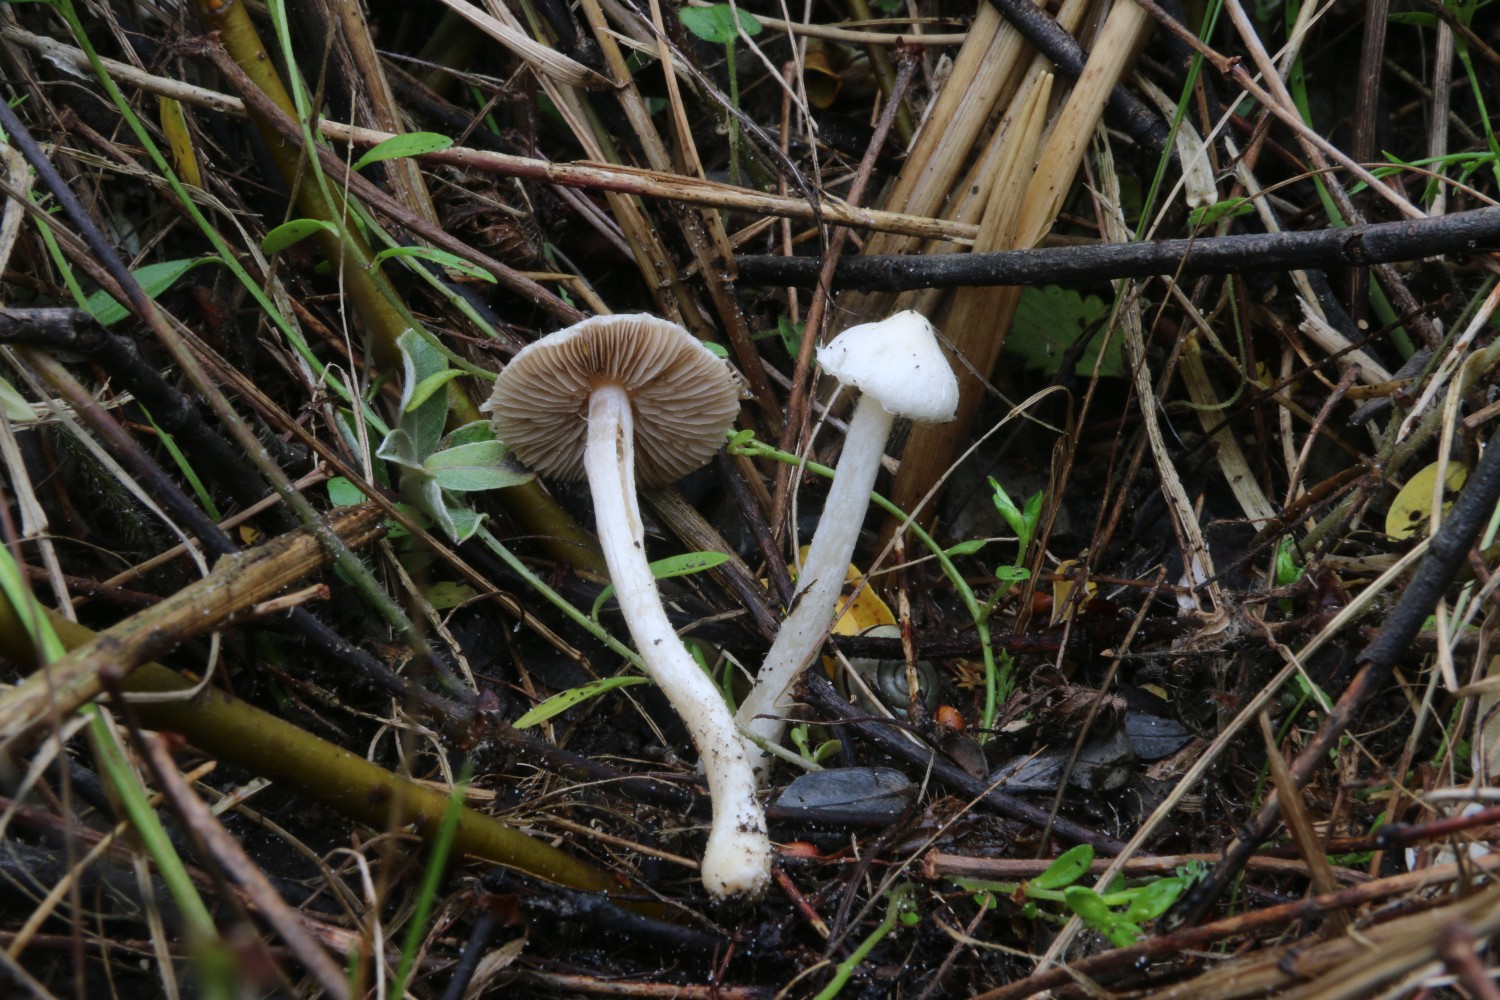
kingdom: Fungi
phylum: Basidiomycota
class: Agaricomycetes
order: Agaricales
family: Inocybaceae
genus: Inocybe
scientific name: Inocybe
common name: almindelig trævlhat
